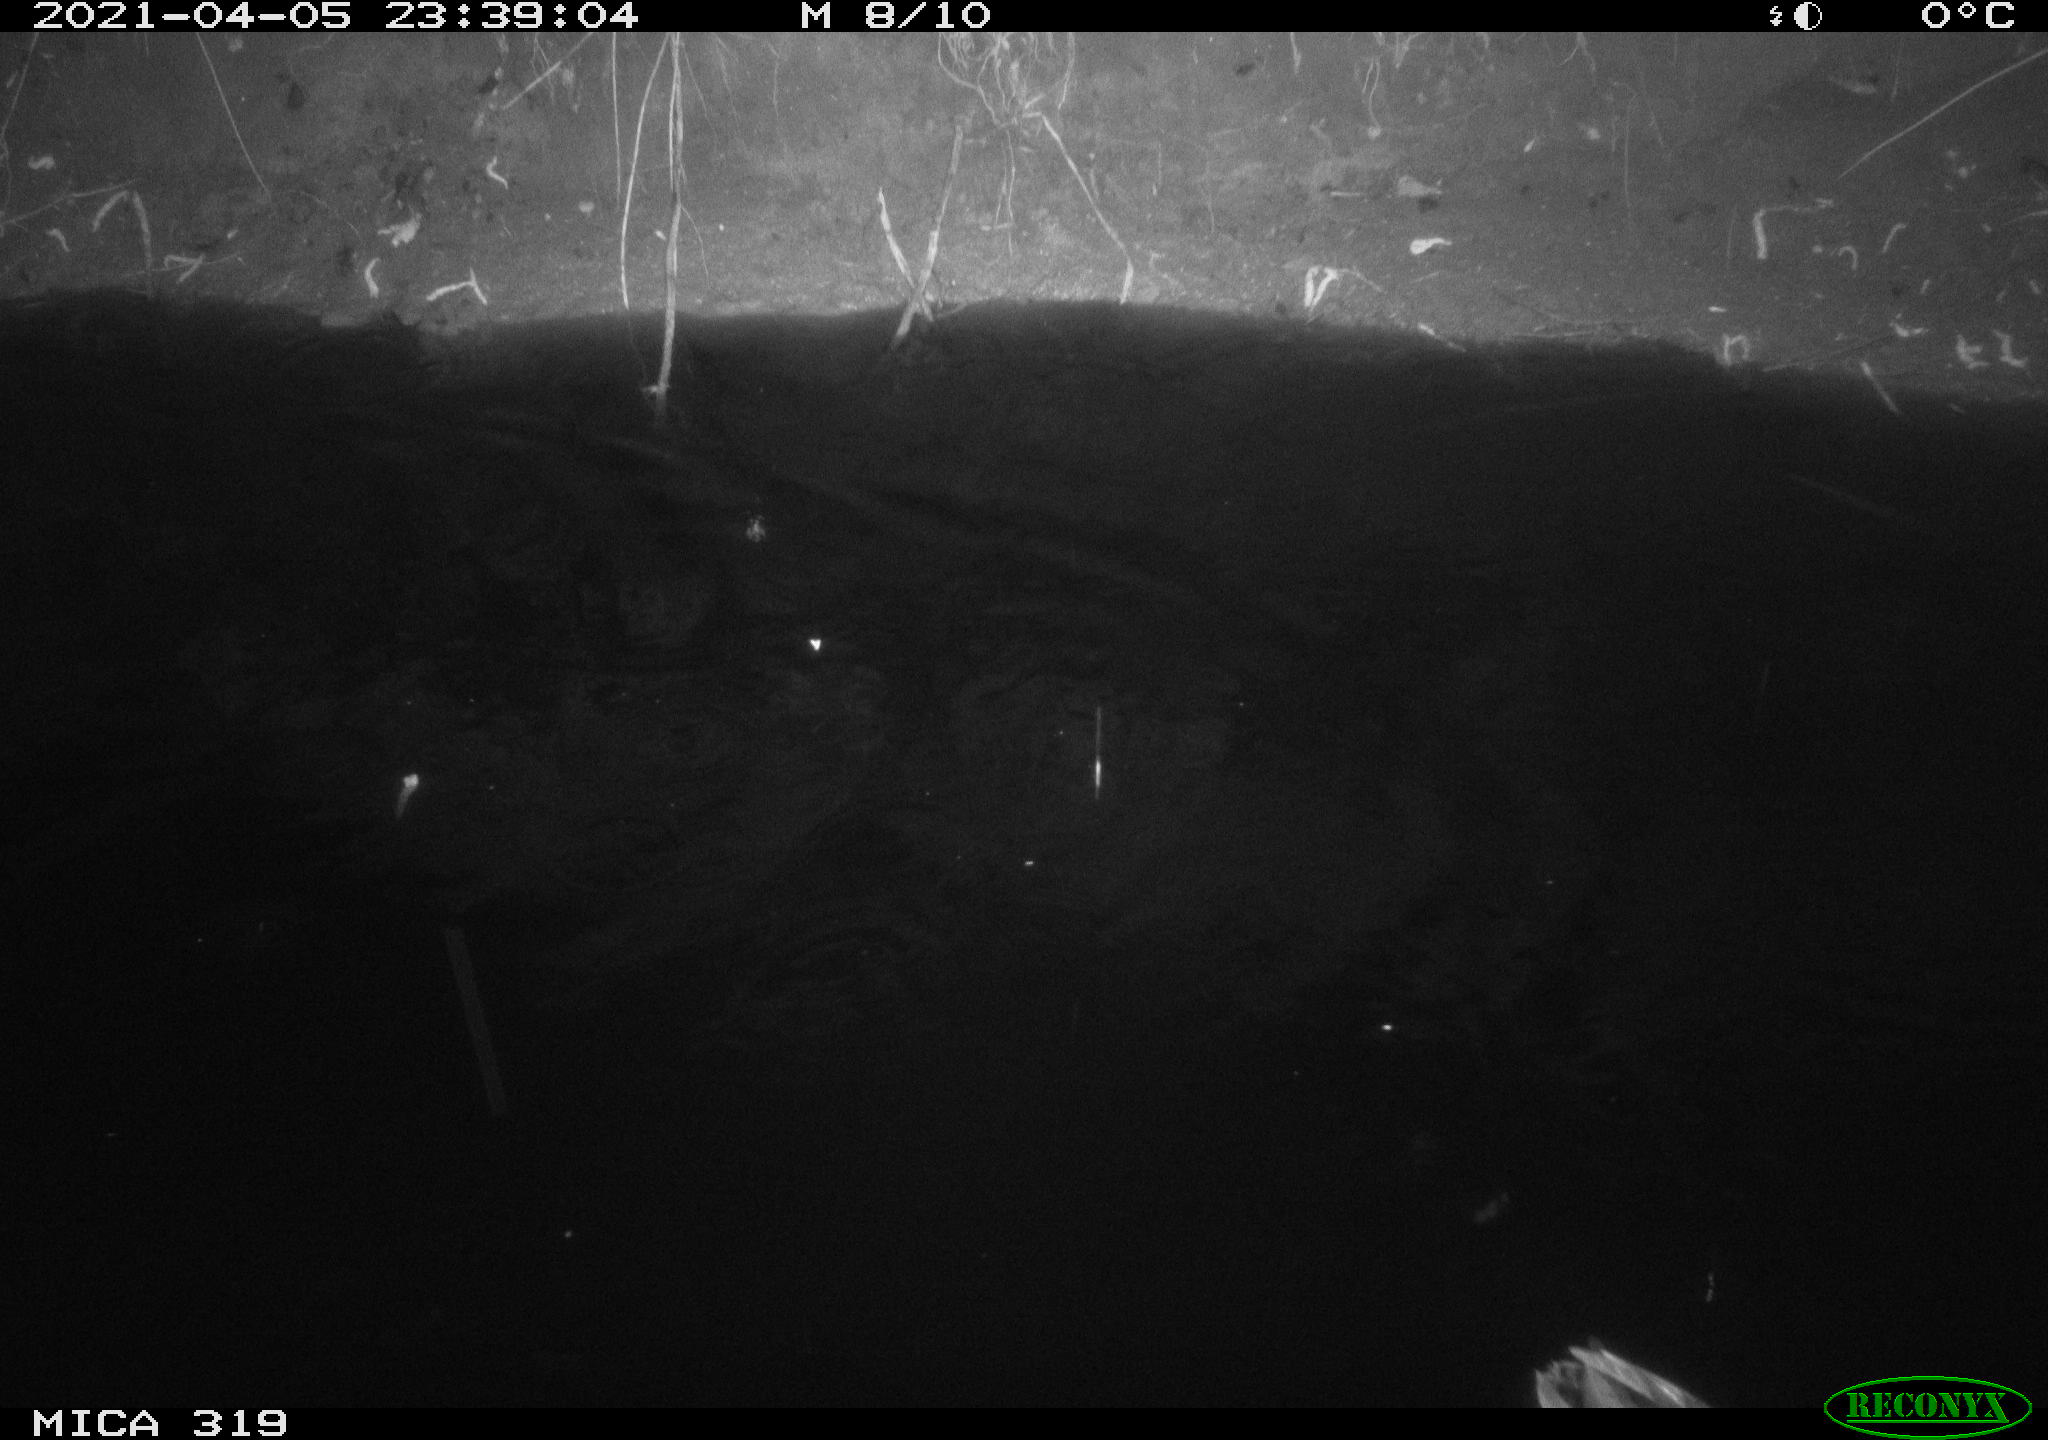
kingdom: Animalia
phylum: Chordata
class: Aves
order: Anseriformes
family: Anatidae
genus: Anas
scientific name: Anas platyrhynchos
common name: Mallard
